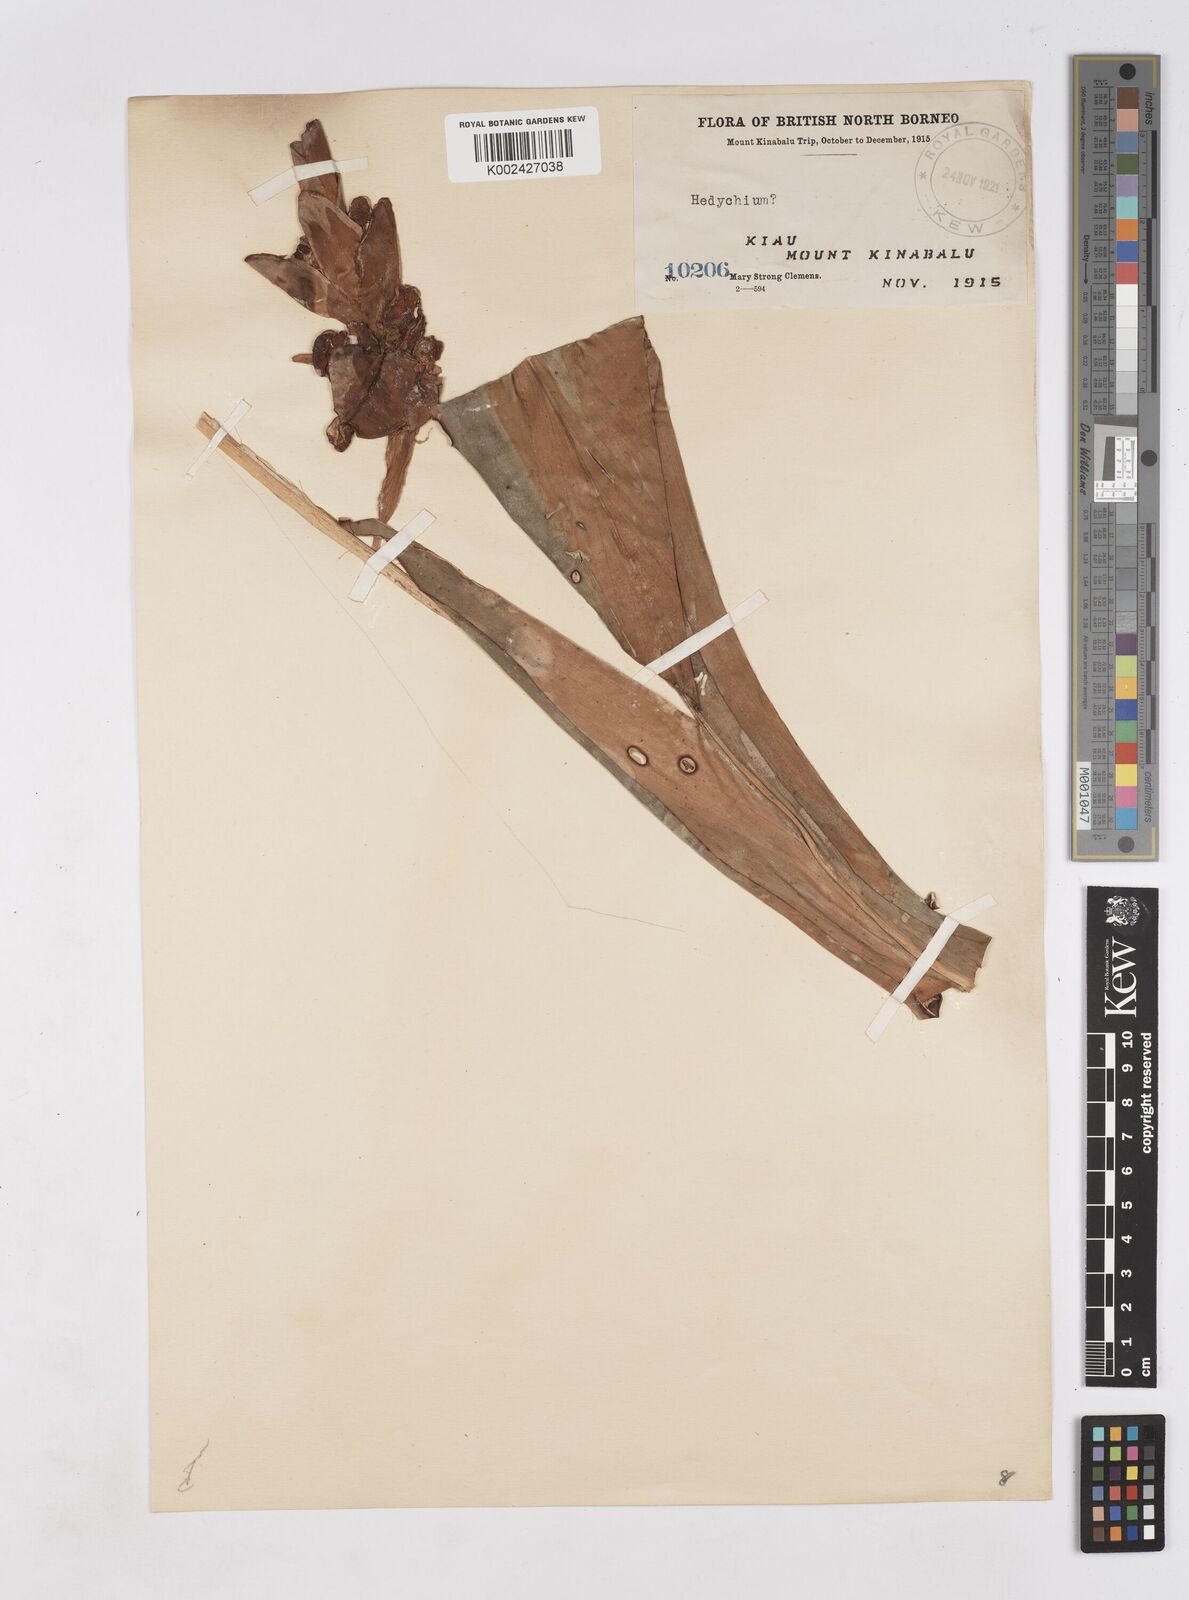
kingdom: Plantae
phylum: Tracheophyta
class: Liliopsida
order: Zingiberales
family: Zingiberaceae
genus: Hedychium
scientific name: Hedychium muluense
